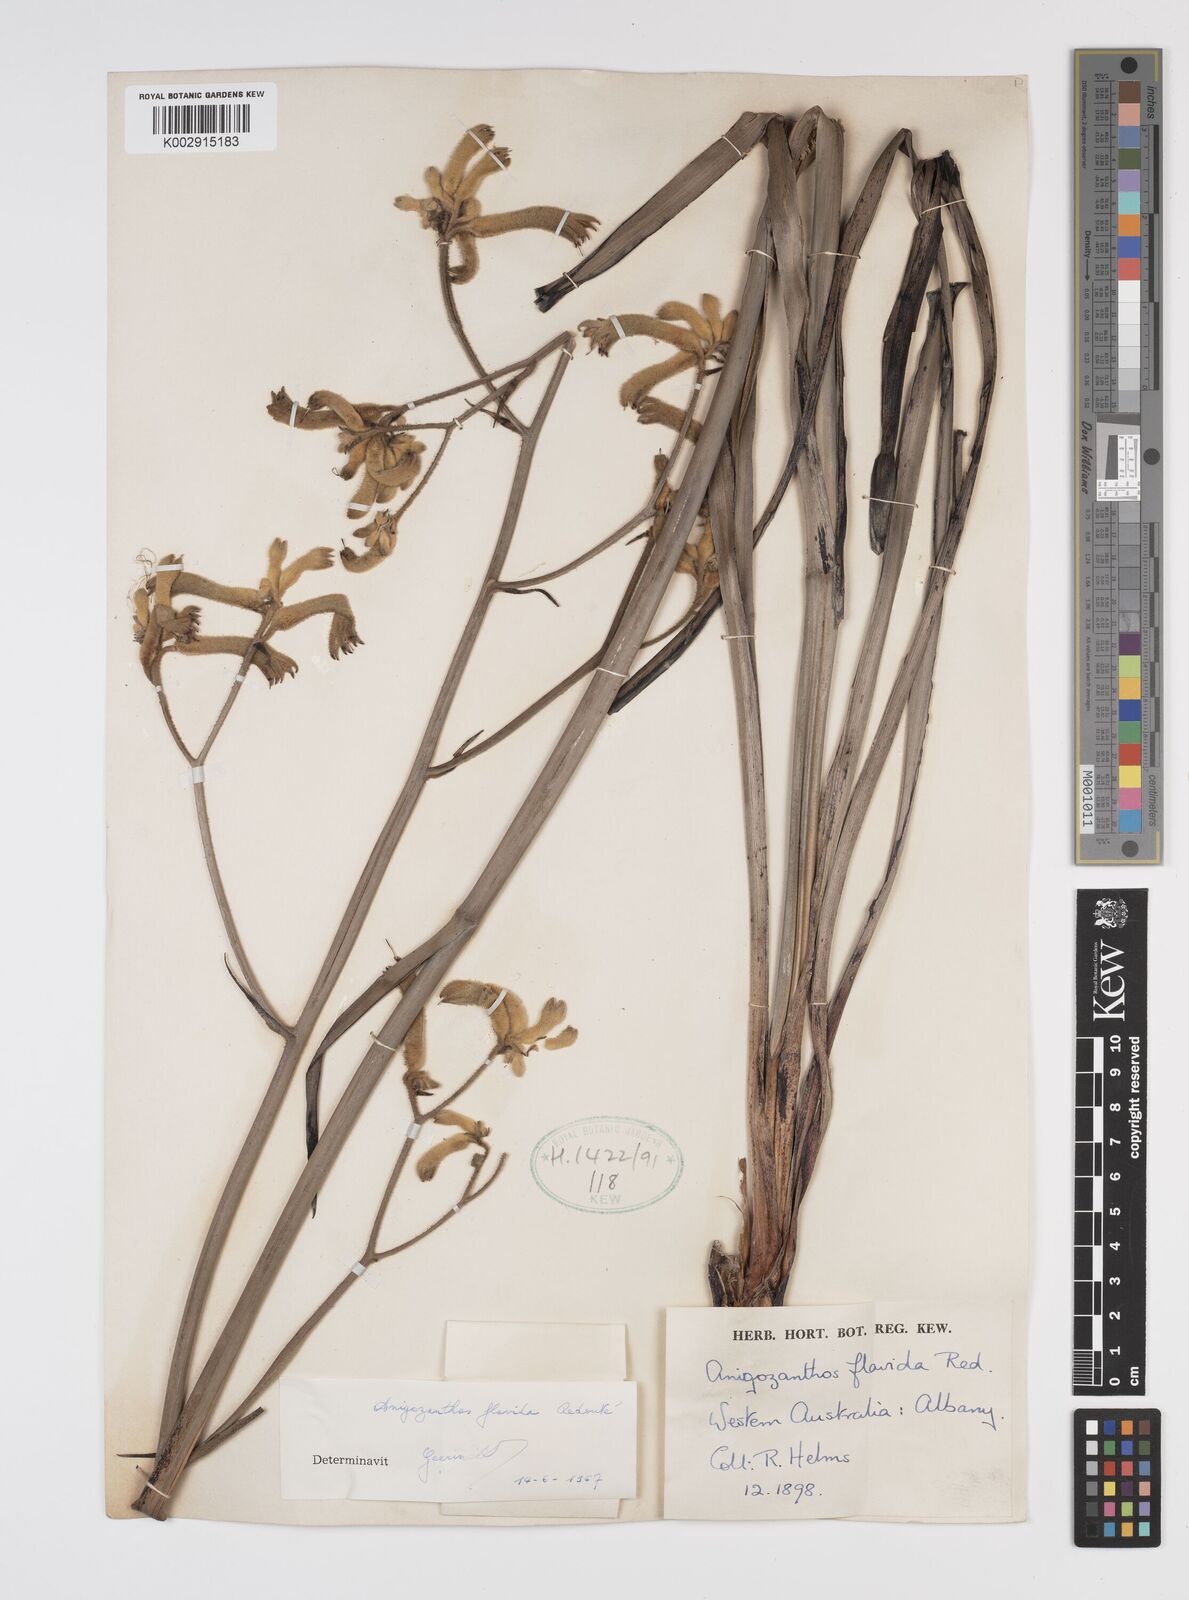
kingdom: Plantae
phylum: Tracheophyta
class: Liliopsida
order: Commelinales
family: Haemodoraceae
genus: Anigozanthos
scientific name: Anigozanthos flavidus
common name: Evergreen kangaroo-paw
